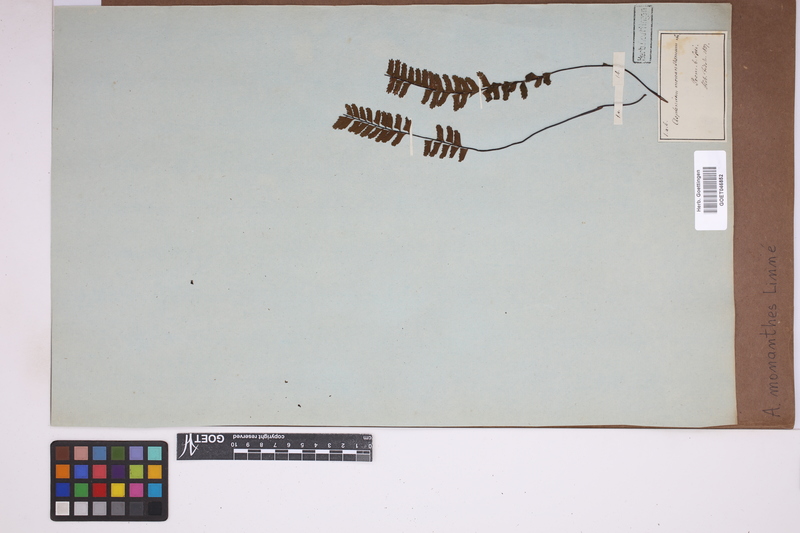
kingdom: Plantae
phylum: Tracheophyta
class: Polypodiopsida
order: Polypodiales
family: Aspleniaceae
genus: Asplenium
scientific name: Asplenium monanthes
